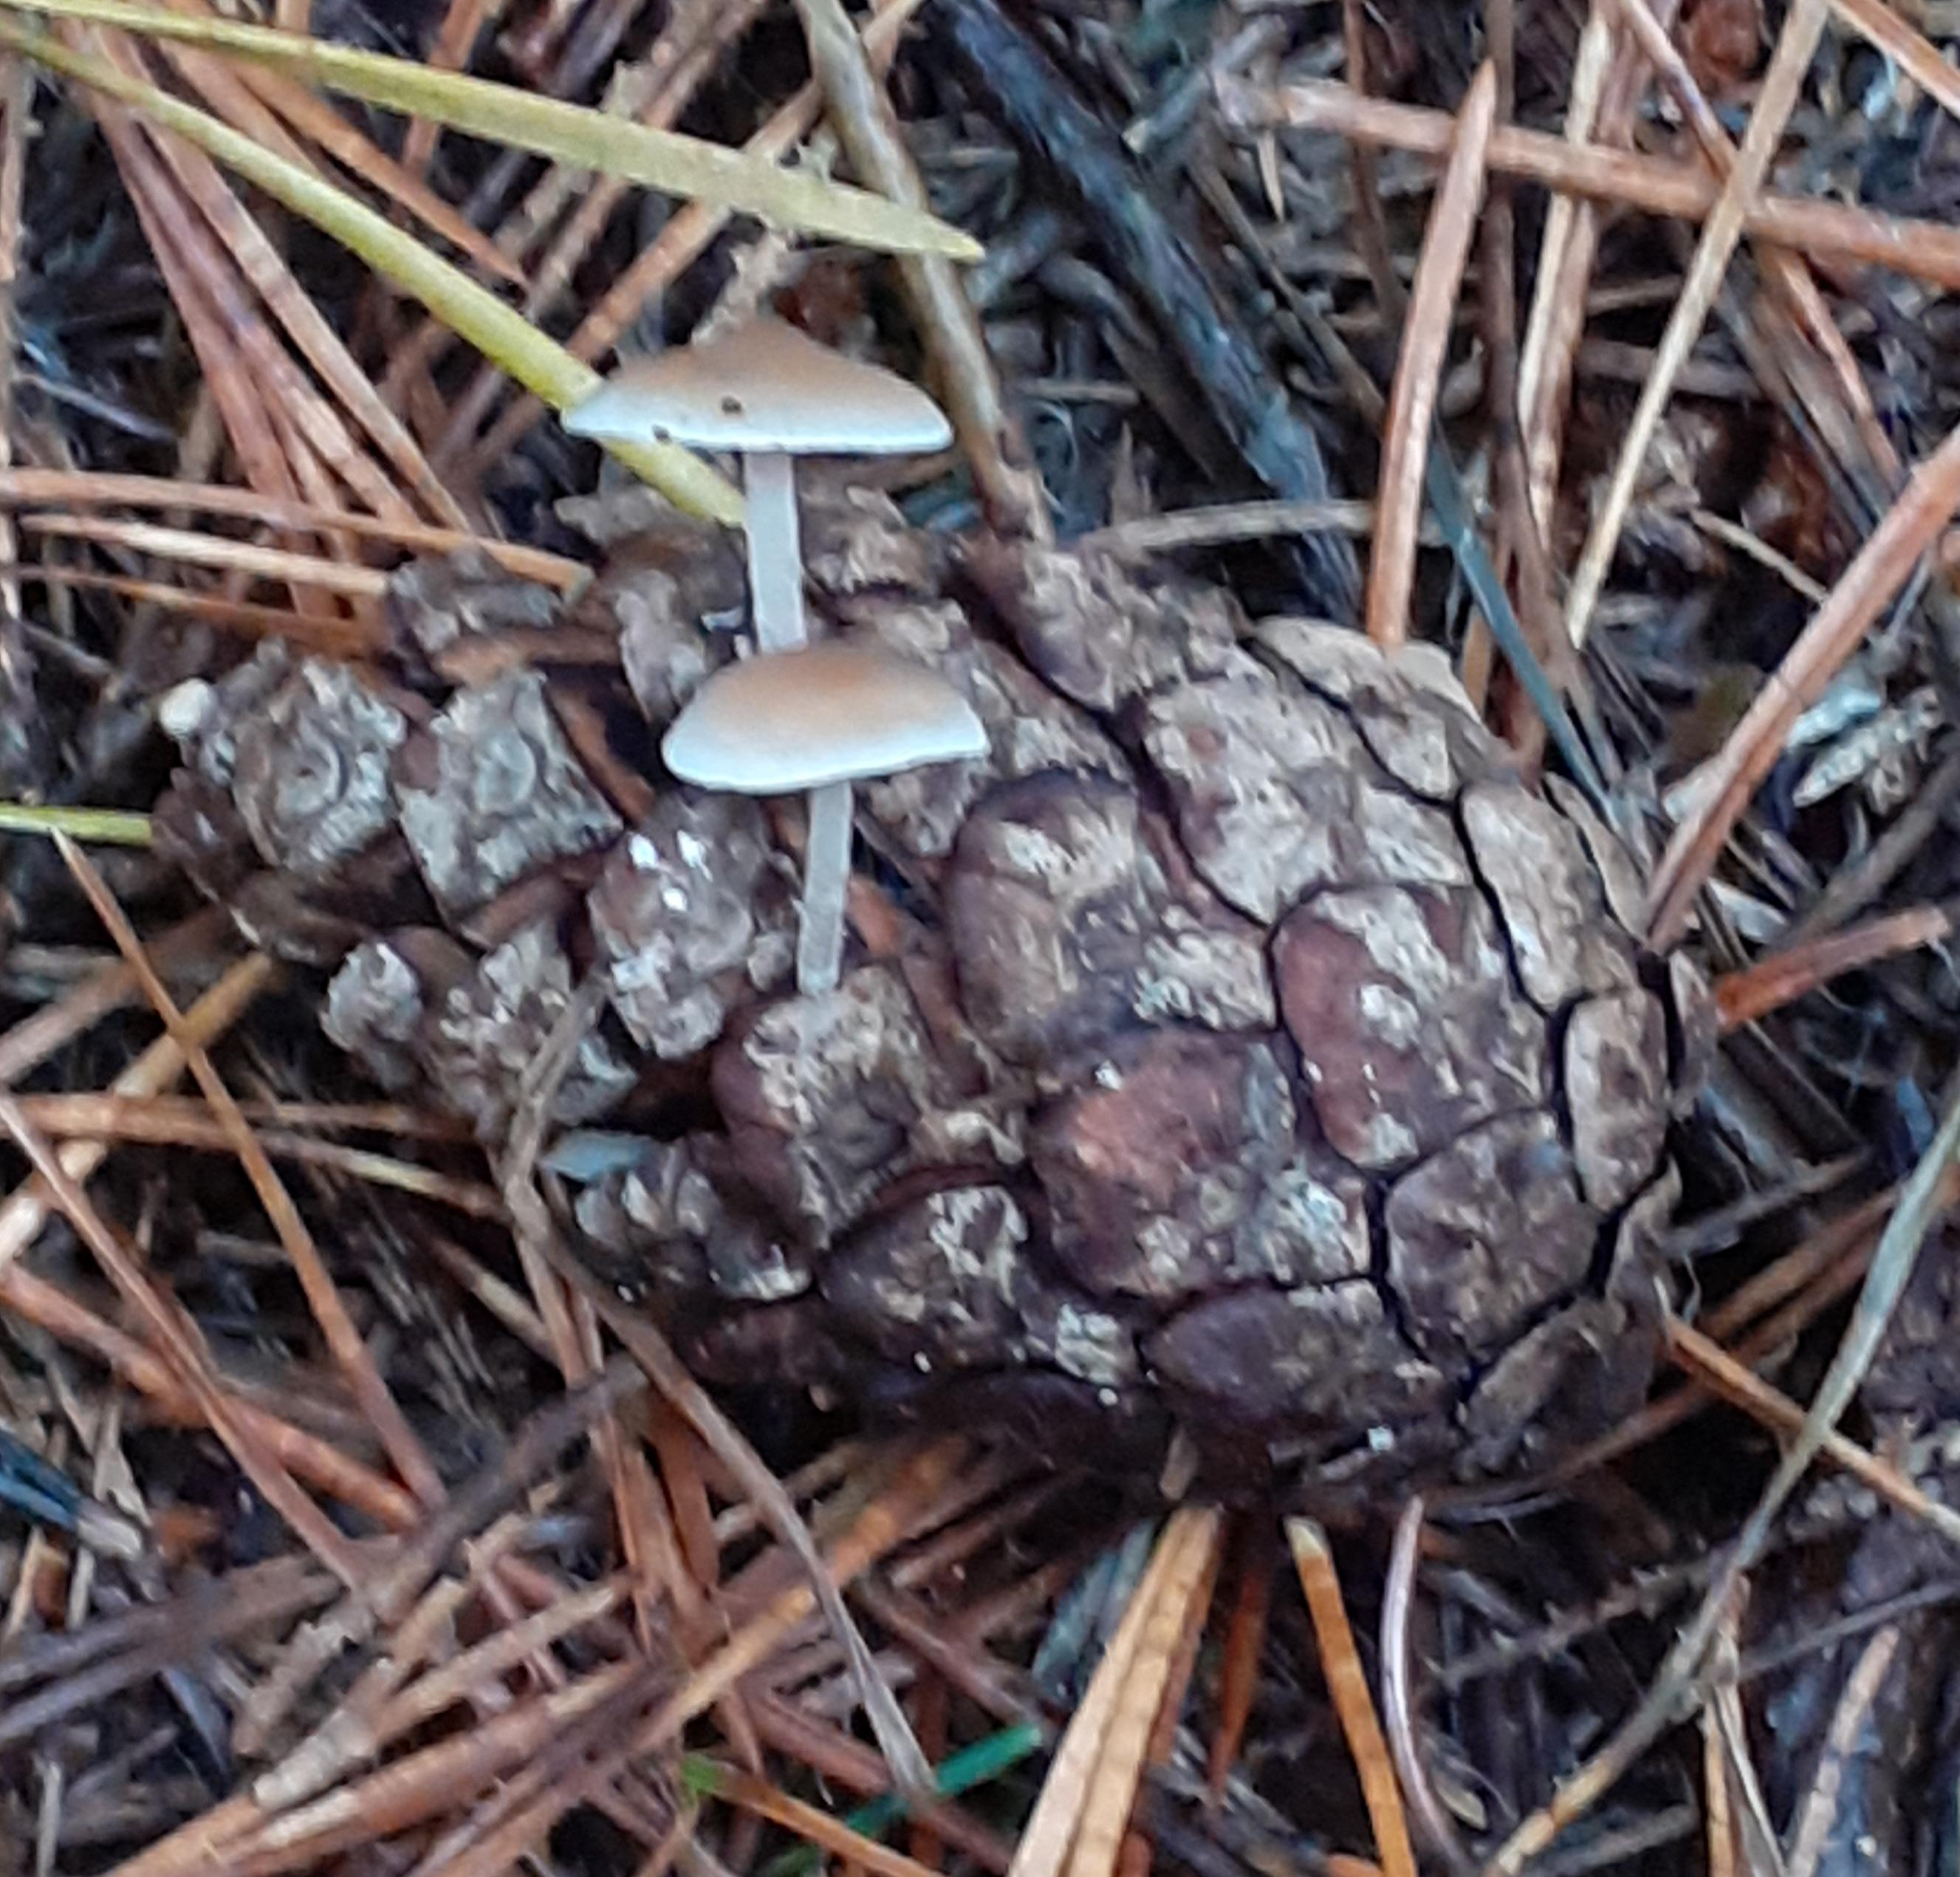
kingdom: Fungi
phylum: Basidiomycota
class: Agaricomycetes
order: Agaricales
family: Marasmiaceae
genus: Baeospora
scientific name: Baeospora myosura
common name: koglebruskhat
